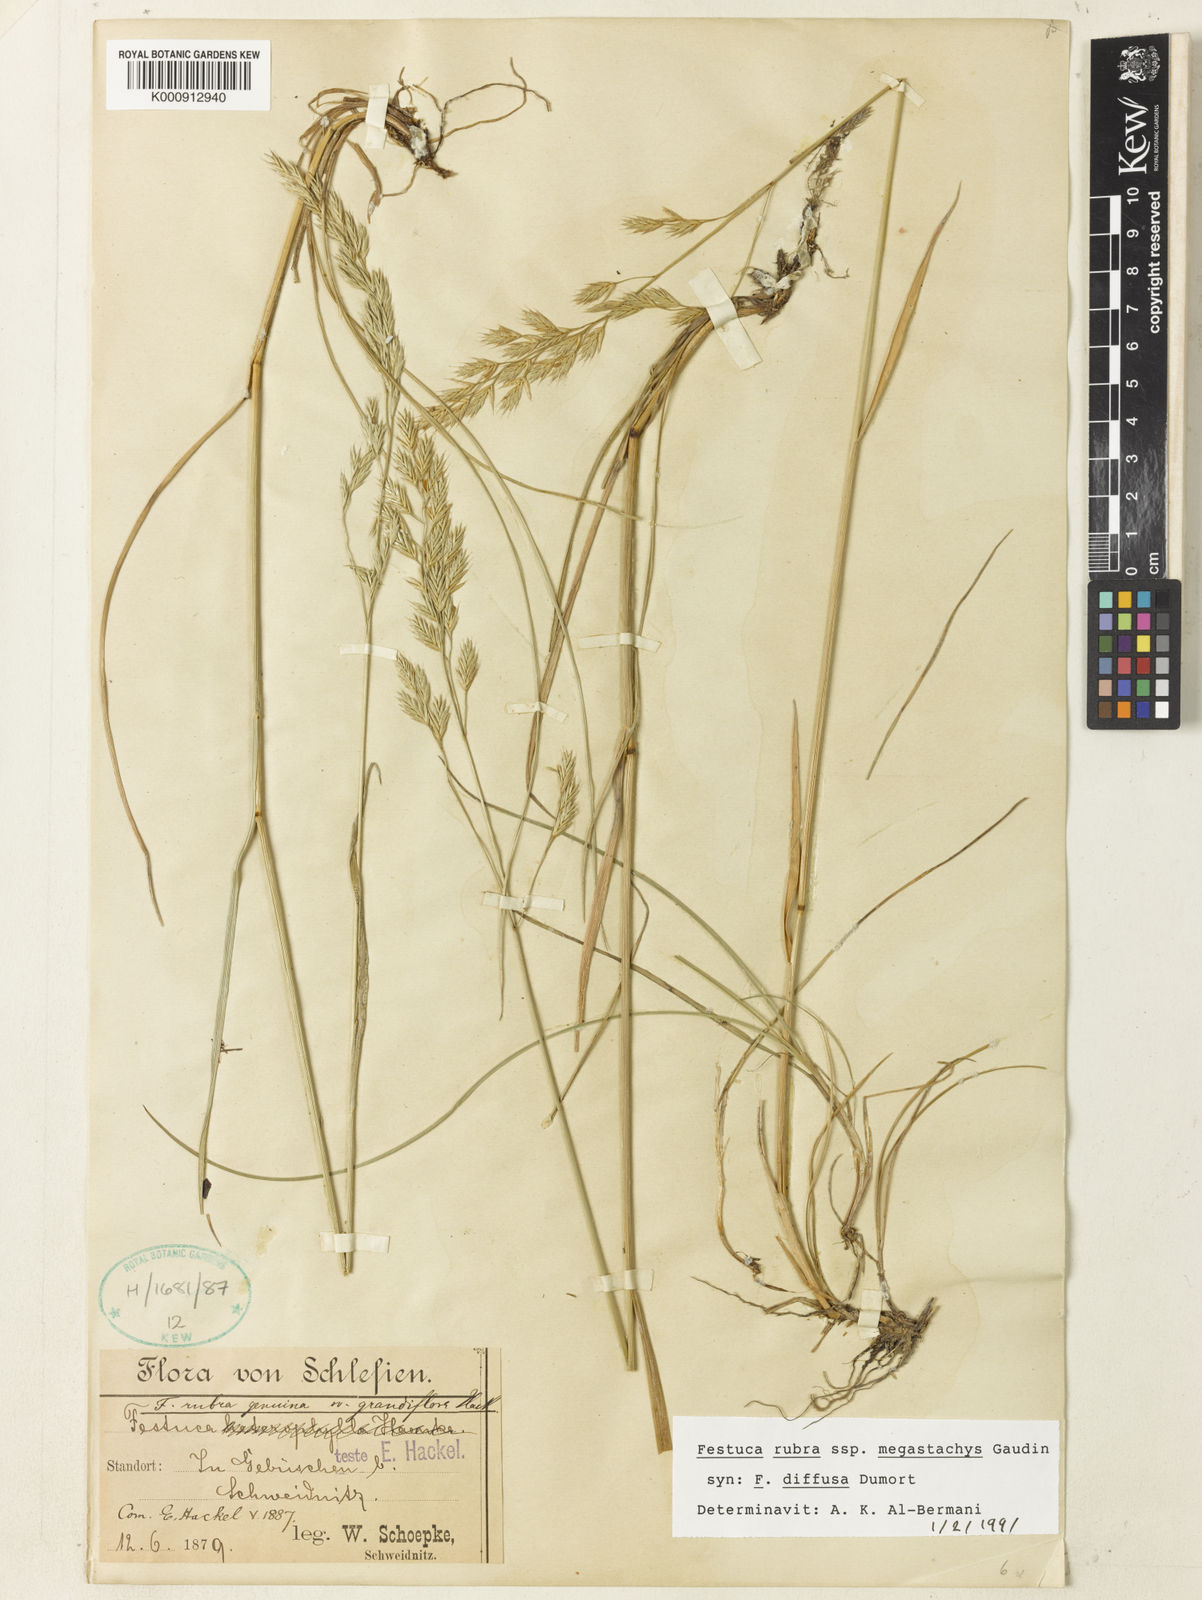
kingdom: Plantae
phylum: Tracheophyta
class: Liliopsida
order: Poales
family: Poaceae
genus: Festuca
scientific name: Festuca rubra
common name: Red fescue
